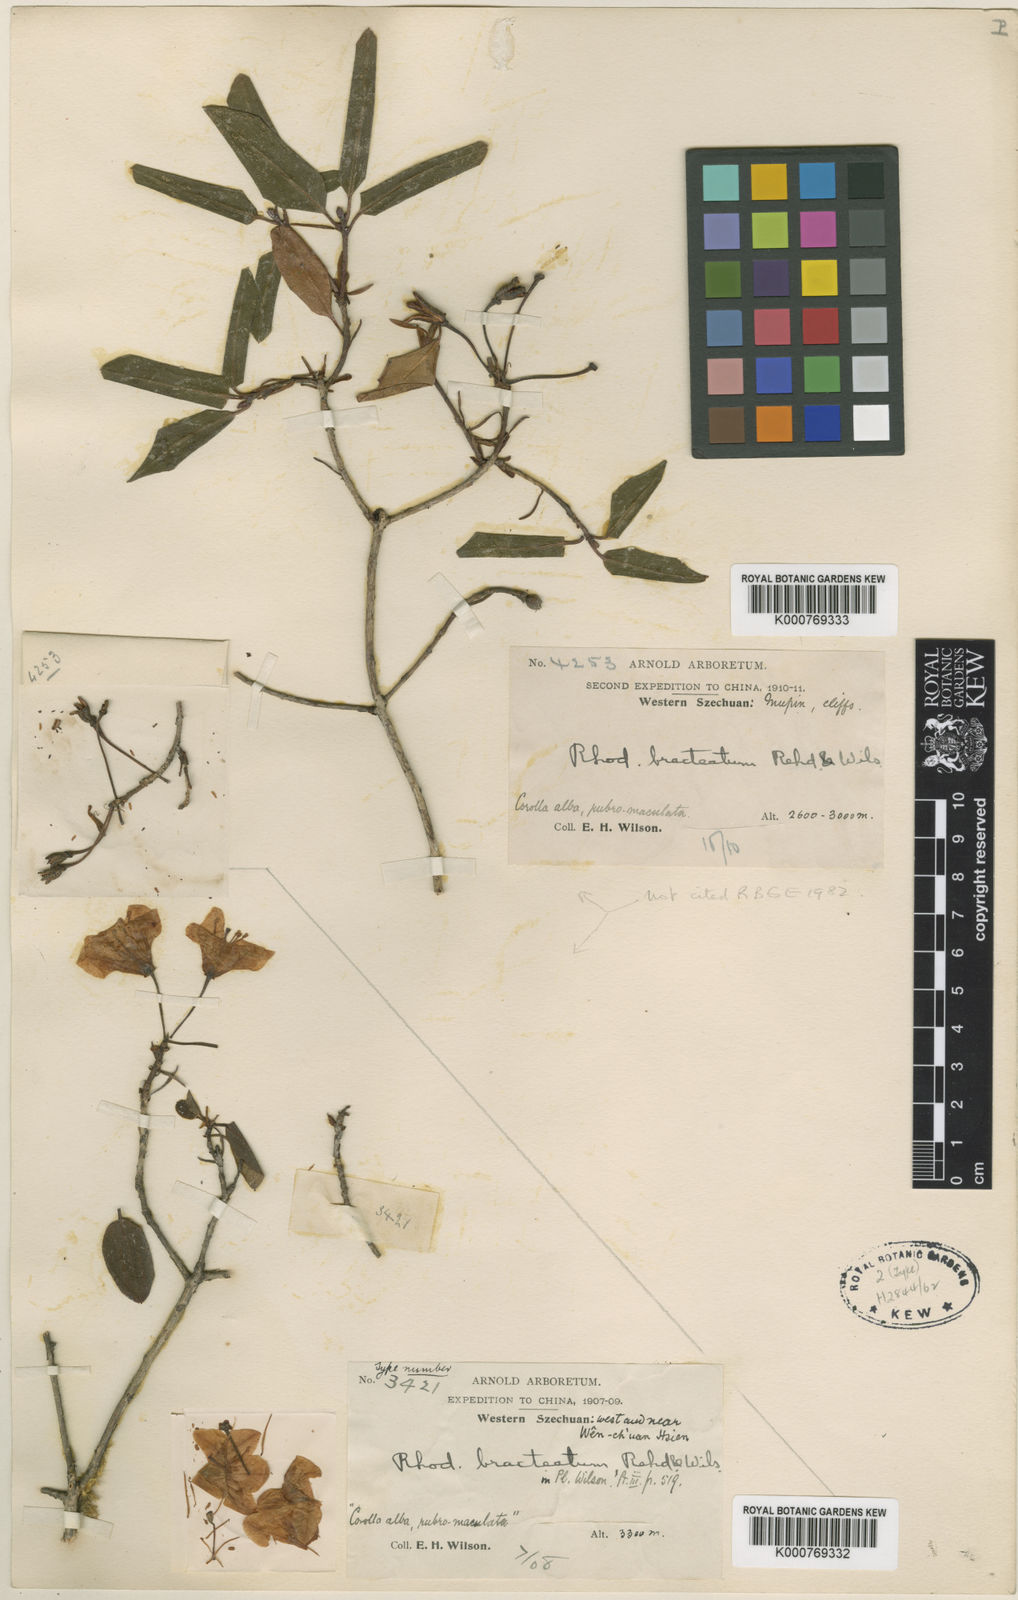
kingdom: Plantae
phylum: Tracheophyta
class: Magnoliopsida
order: Ericales
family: Ericaceae
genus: Rhododendron
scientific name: Rhododendron bracteatum
